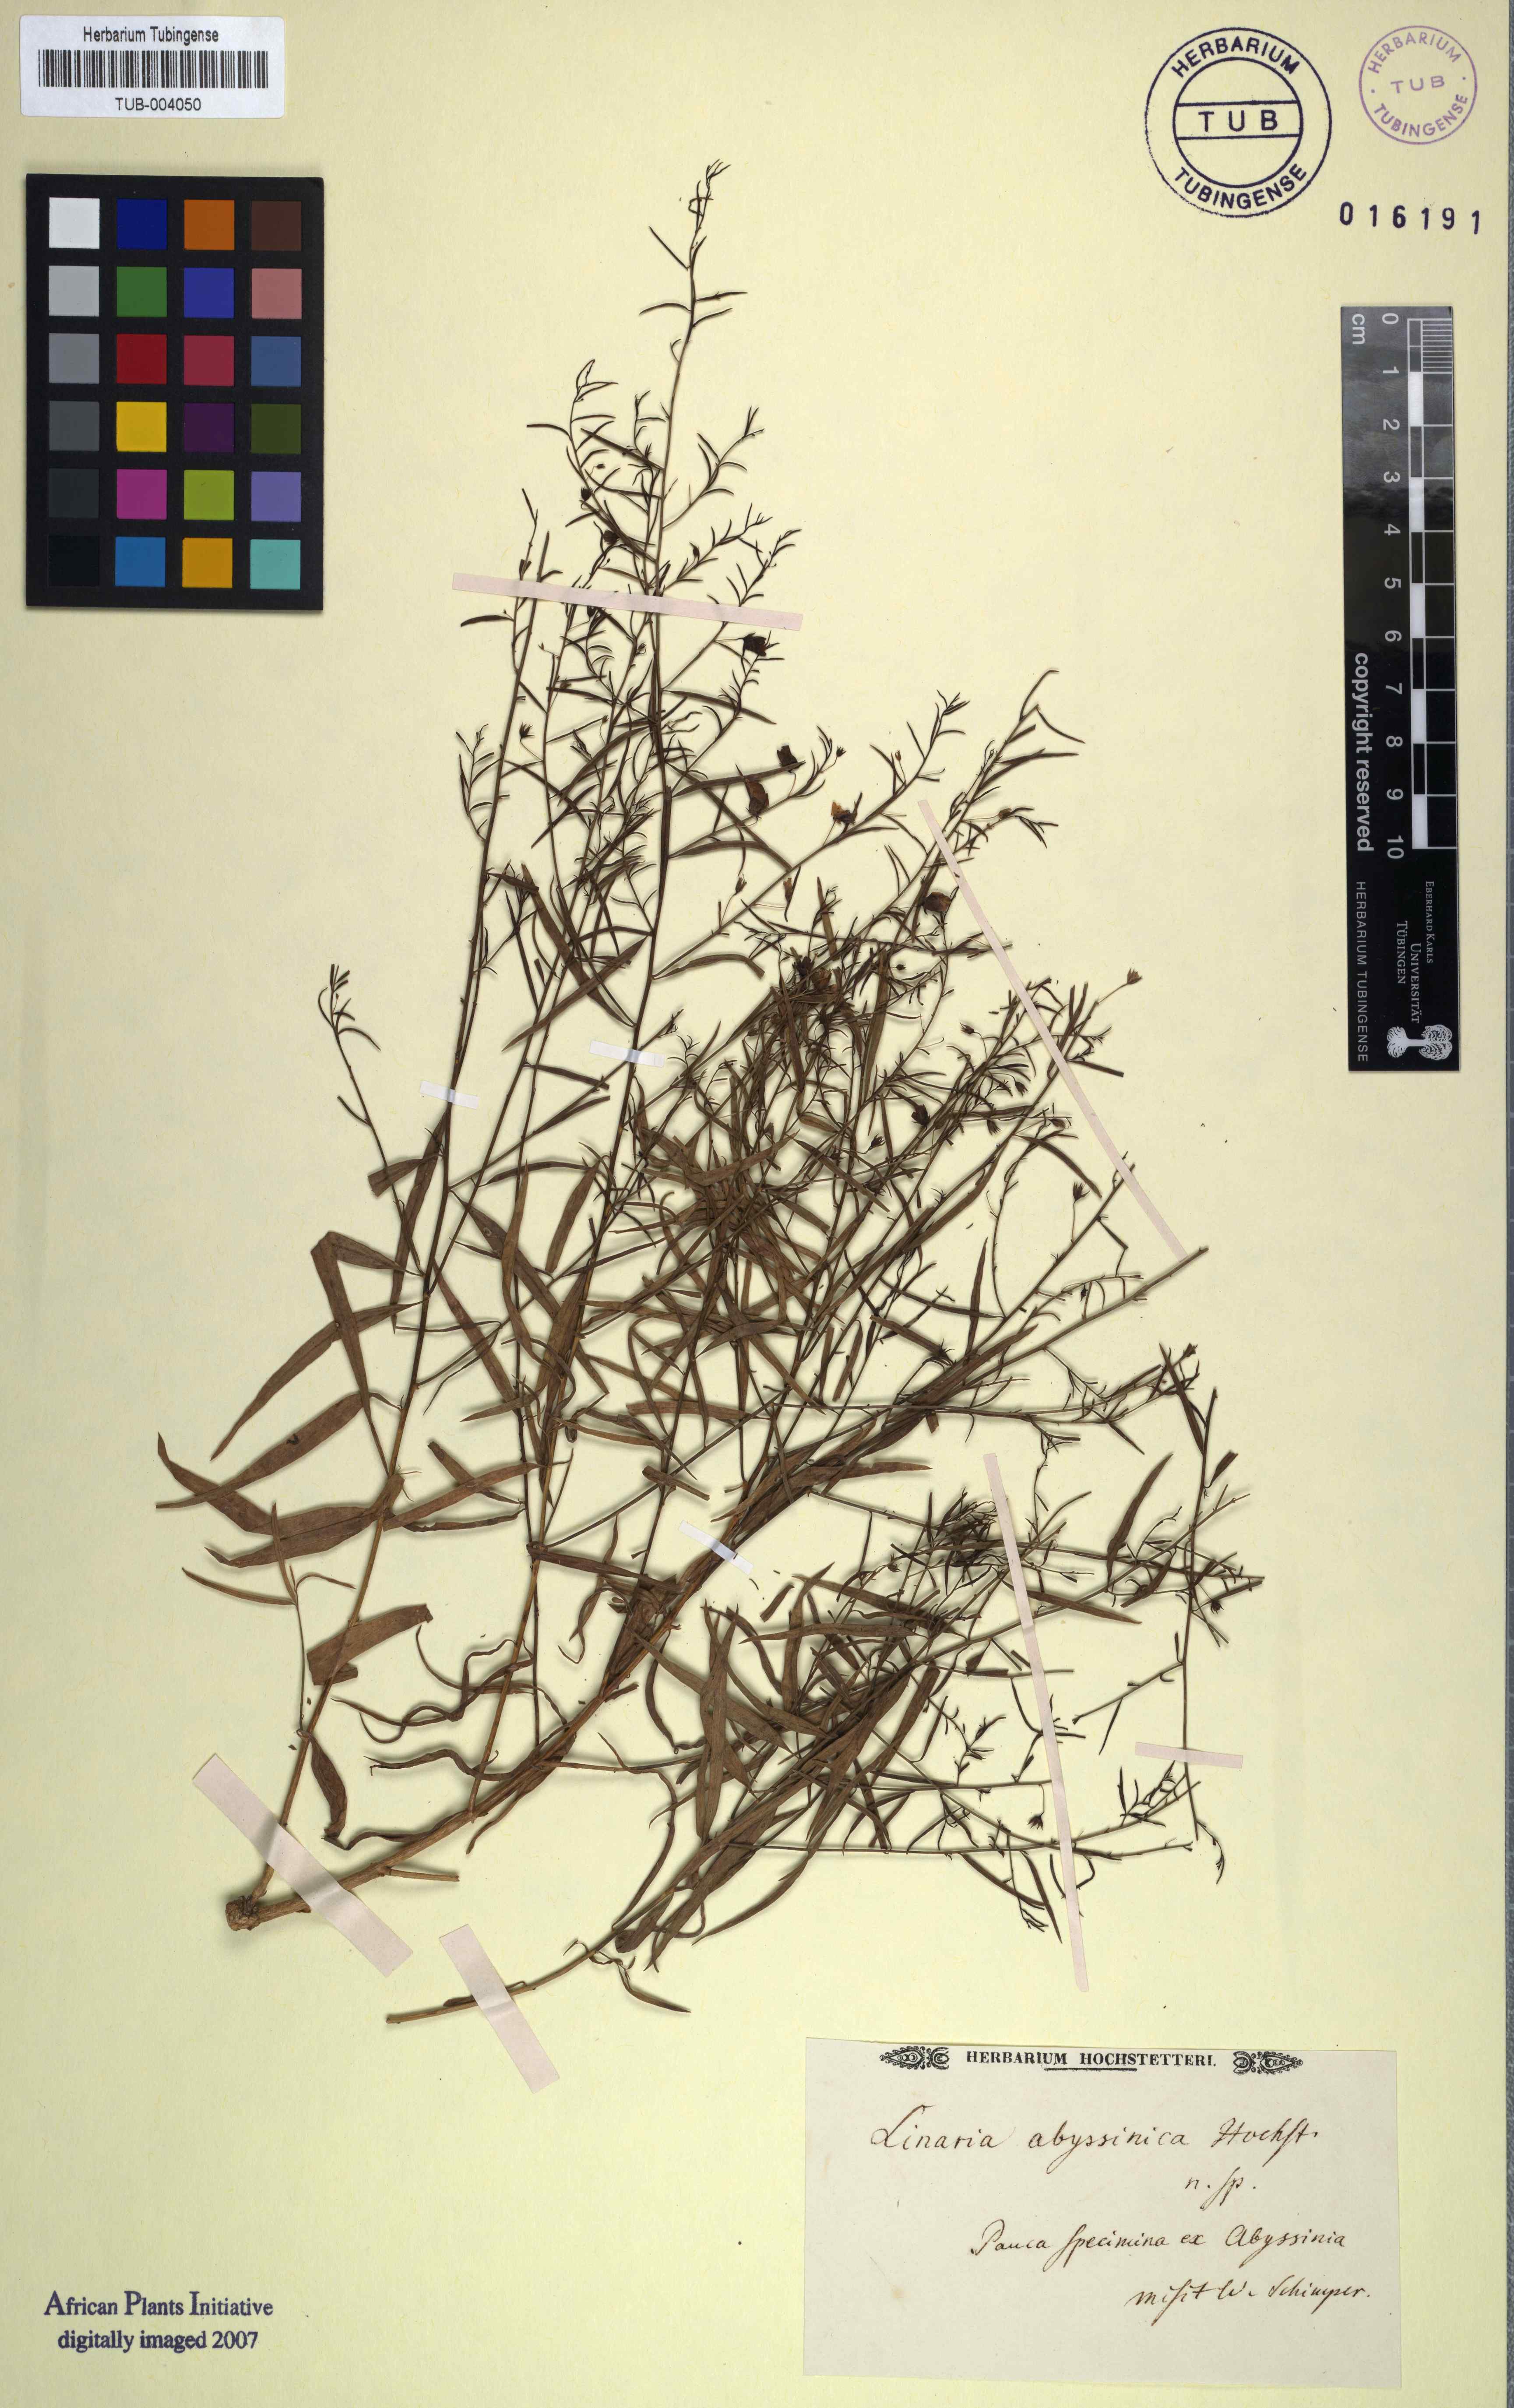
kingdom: Plantae
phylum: Tracheophyta
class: Magnoliopsida
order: Lamiales
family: Plantaginaceae
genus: Linaria
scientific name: Linaria
